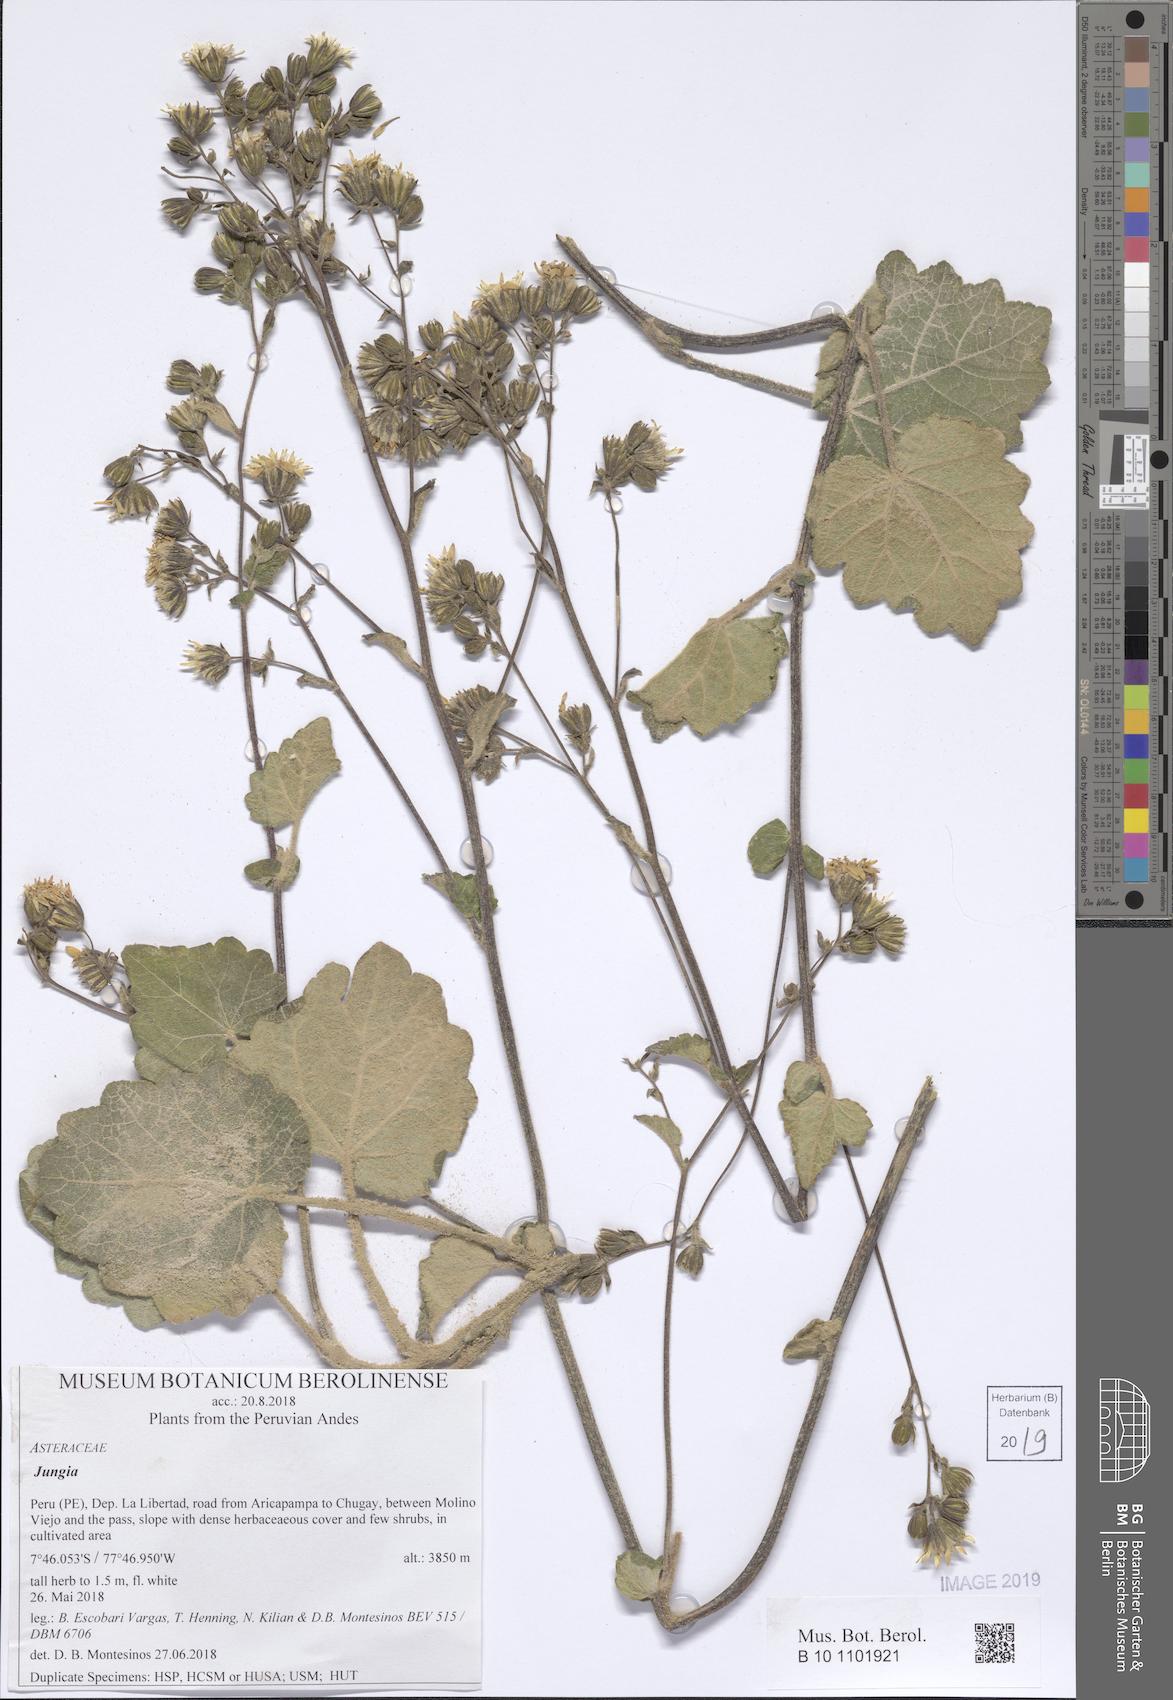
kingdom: Plantae
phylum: Tracheophyta
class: Magnoliopsida
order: Asterales
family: Asteraceae
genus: Jungia
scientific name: Jungia rugosa
